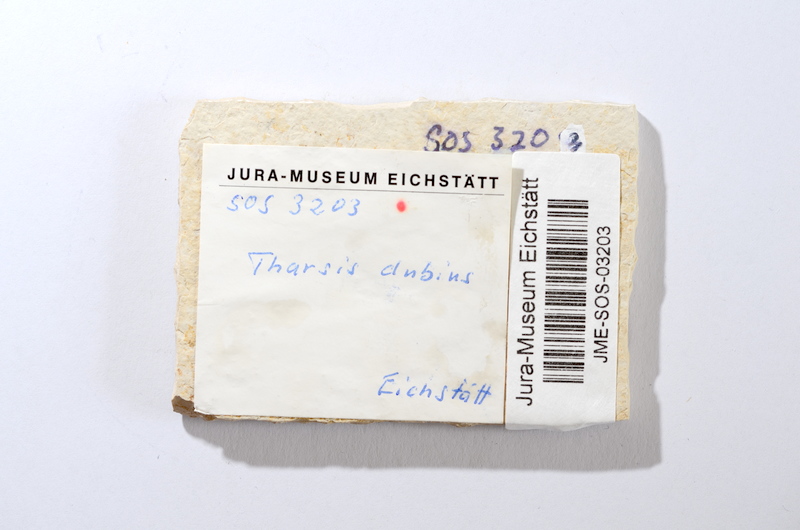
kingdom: Animalia
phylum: Chordata
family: Ascalaboidae
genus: Tharsis
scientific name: Tharsis dubius
